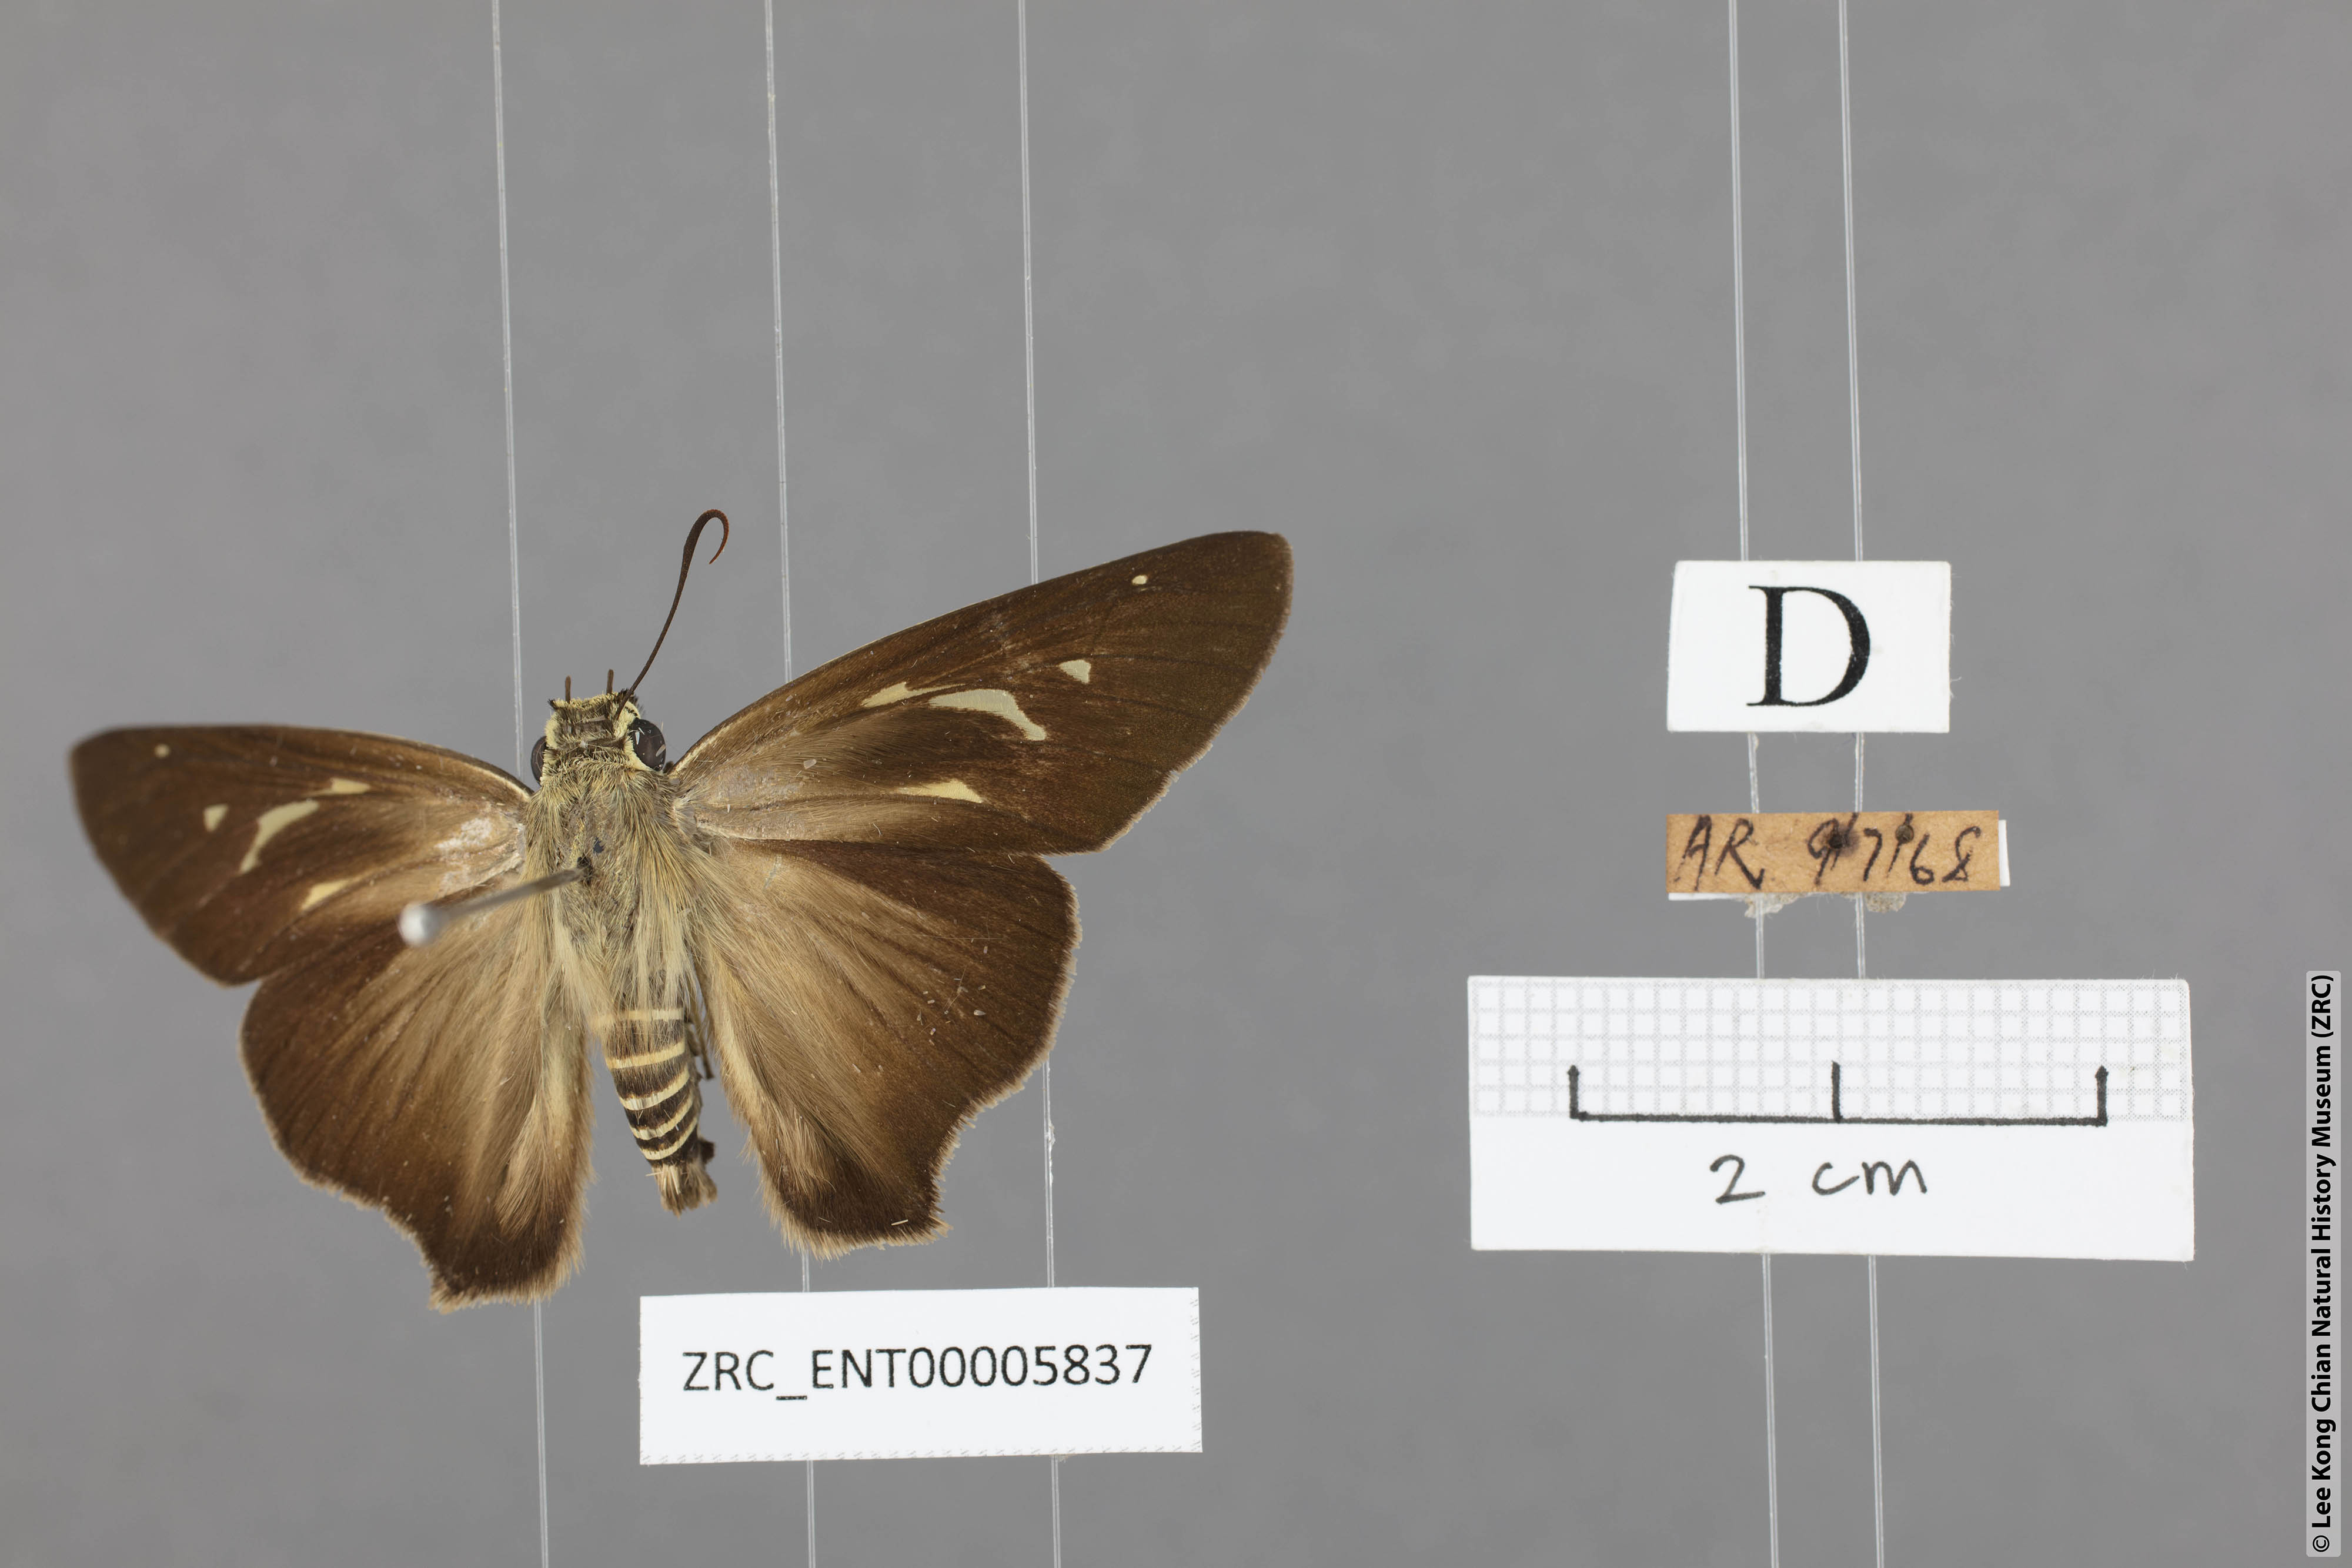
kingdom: Animalia
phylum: Arthropoda
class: Insecta
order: Lepidoptera
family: Hesperiidae
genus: Badamia
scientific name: Badamia exclamationis
